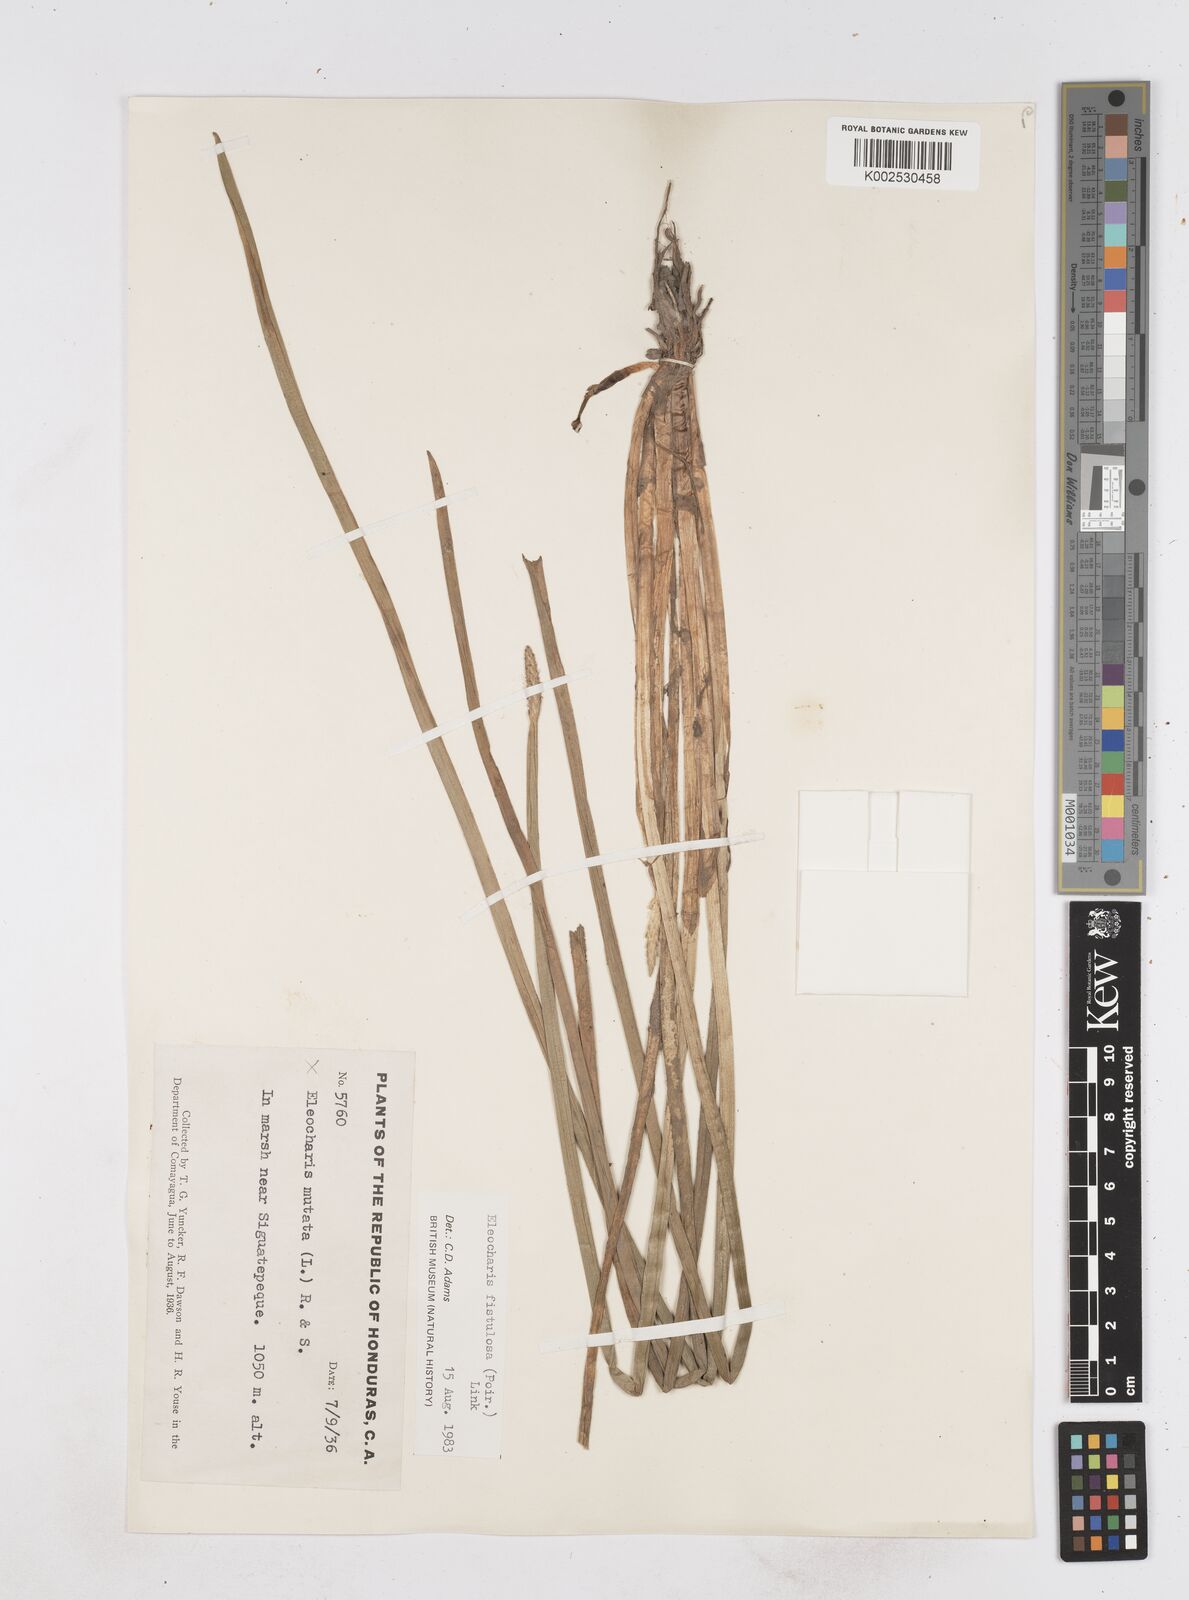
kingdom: Plantae
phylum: Tracheophyta
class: Liliopsida
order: Poales
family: Cyperaceae
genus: Eleocharis
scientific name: Eleocharis acutangula
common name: Acute spikerush
